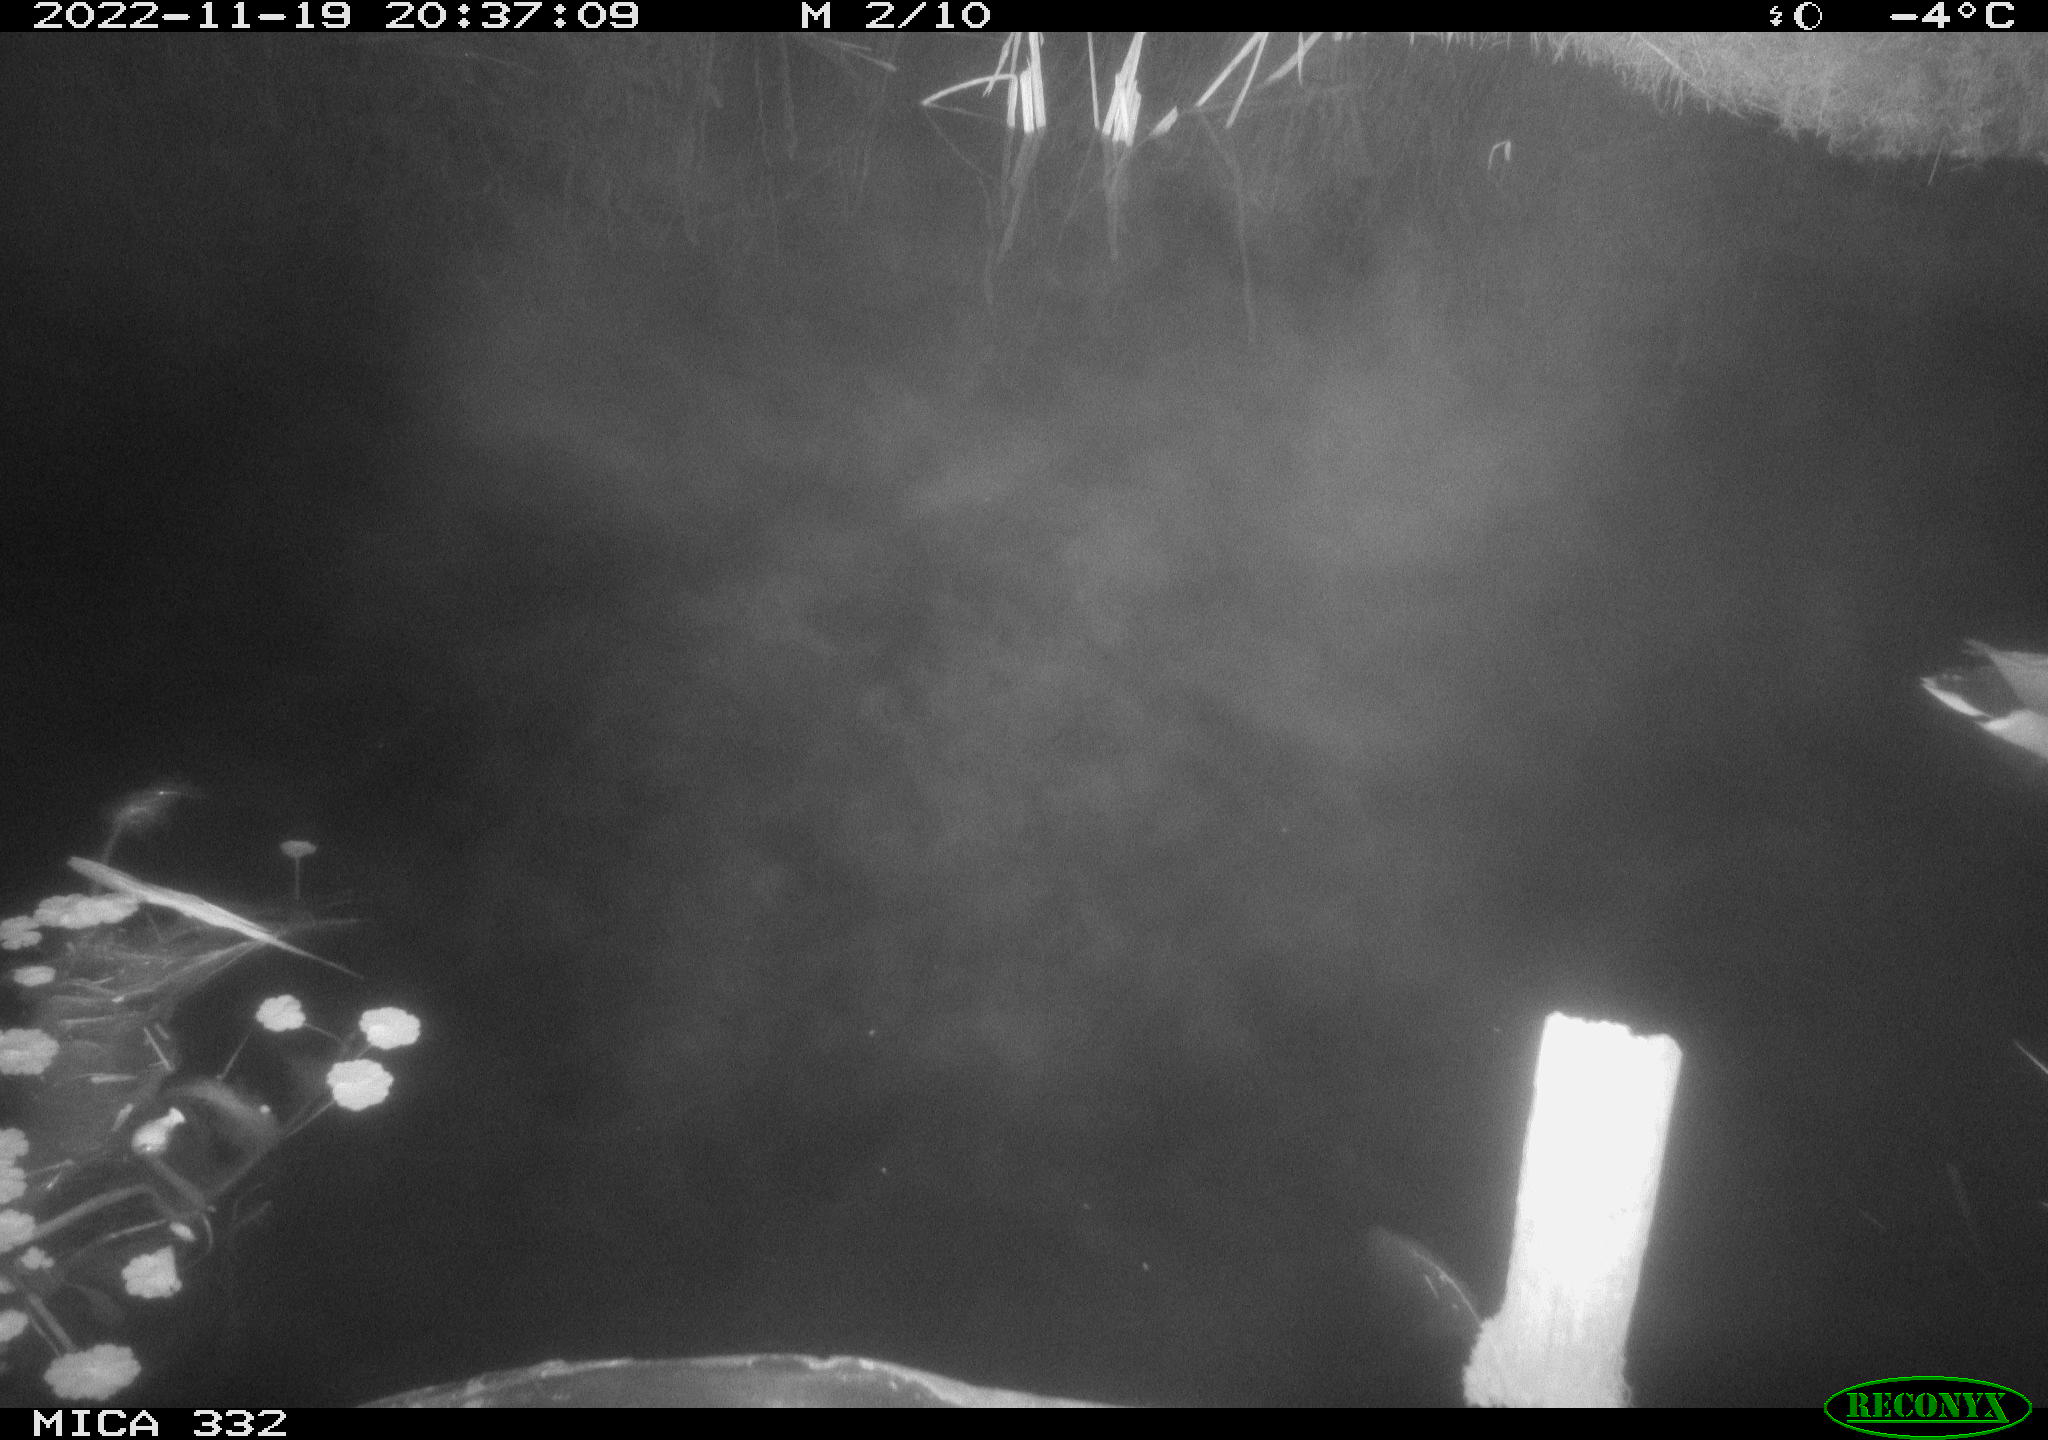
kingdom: Animalia
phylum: Chordata
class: Aves
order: Anseriformes
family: Anatidae
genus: Anas
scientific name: Anas platyrhynchos
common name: Mallard
